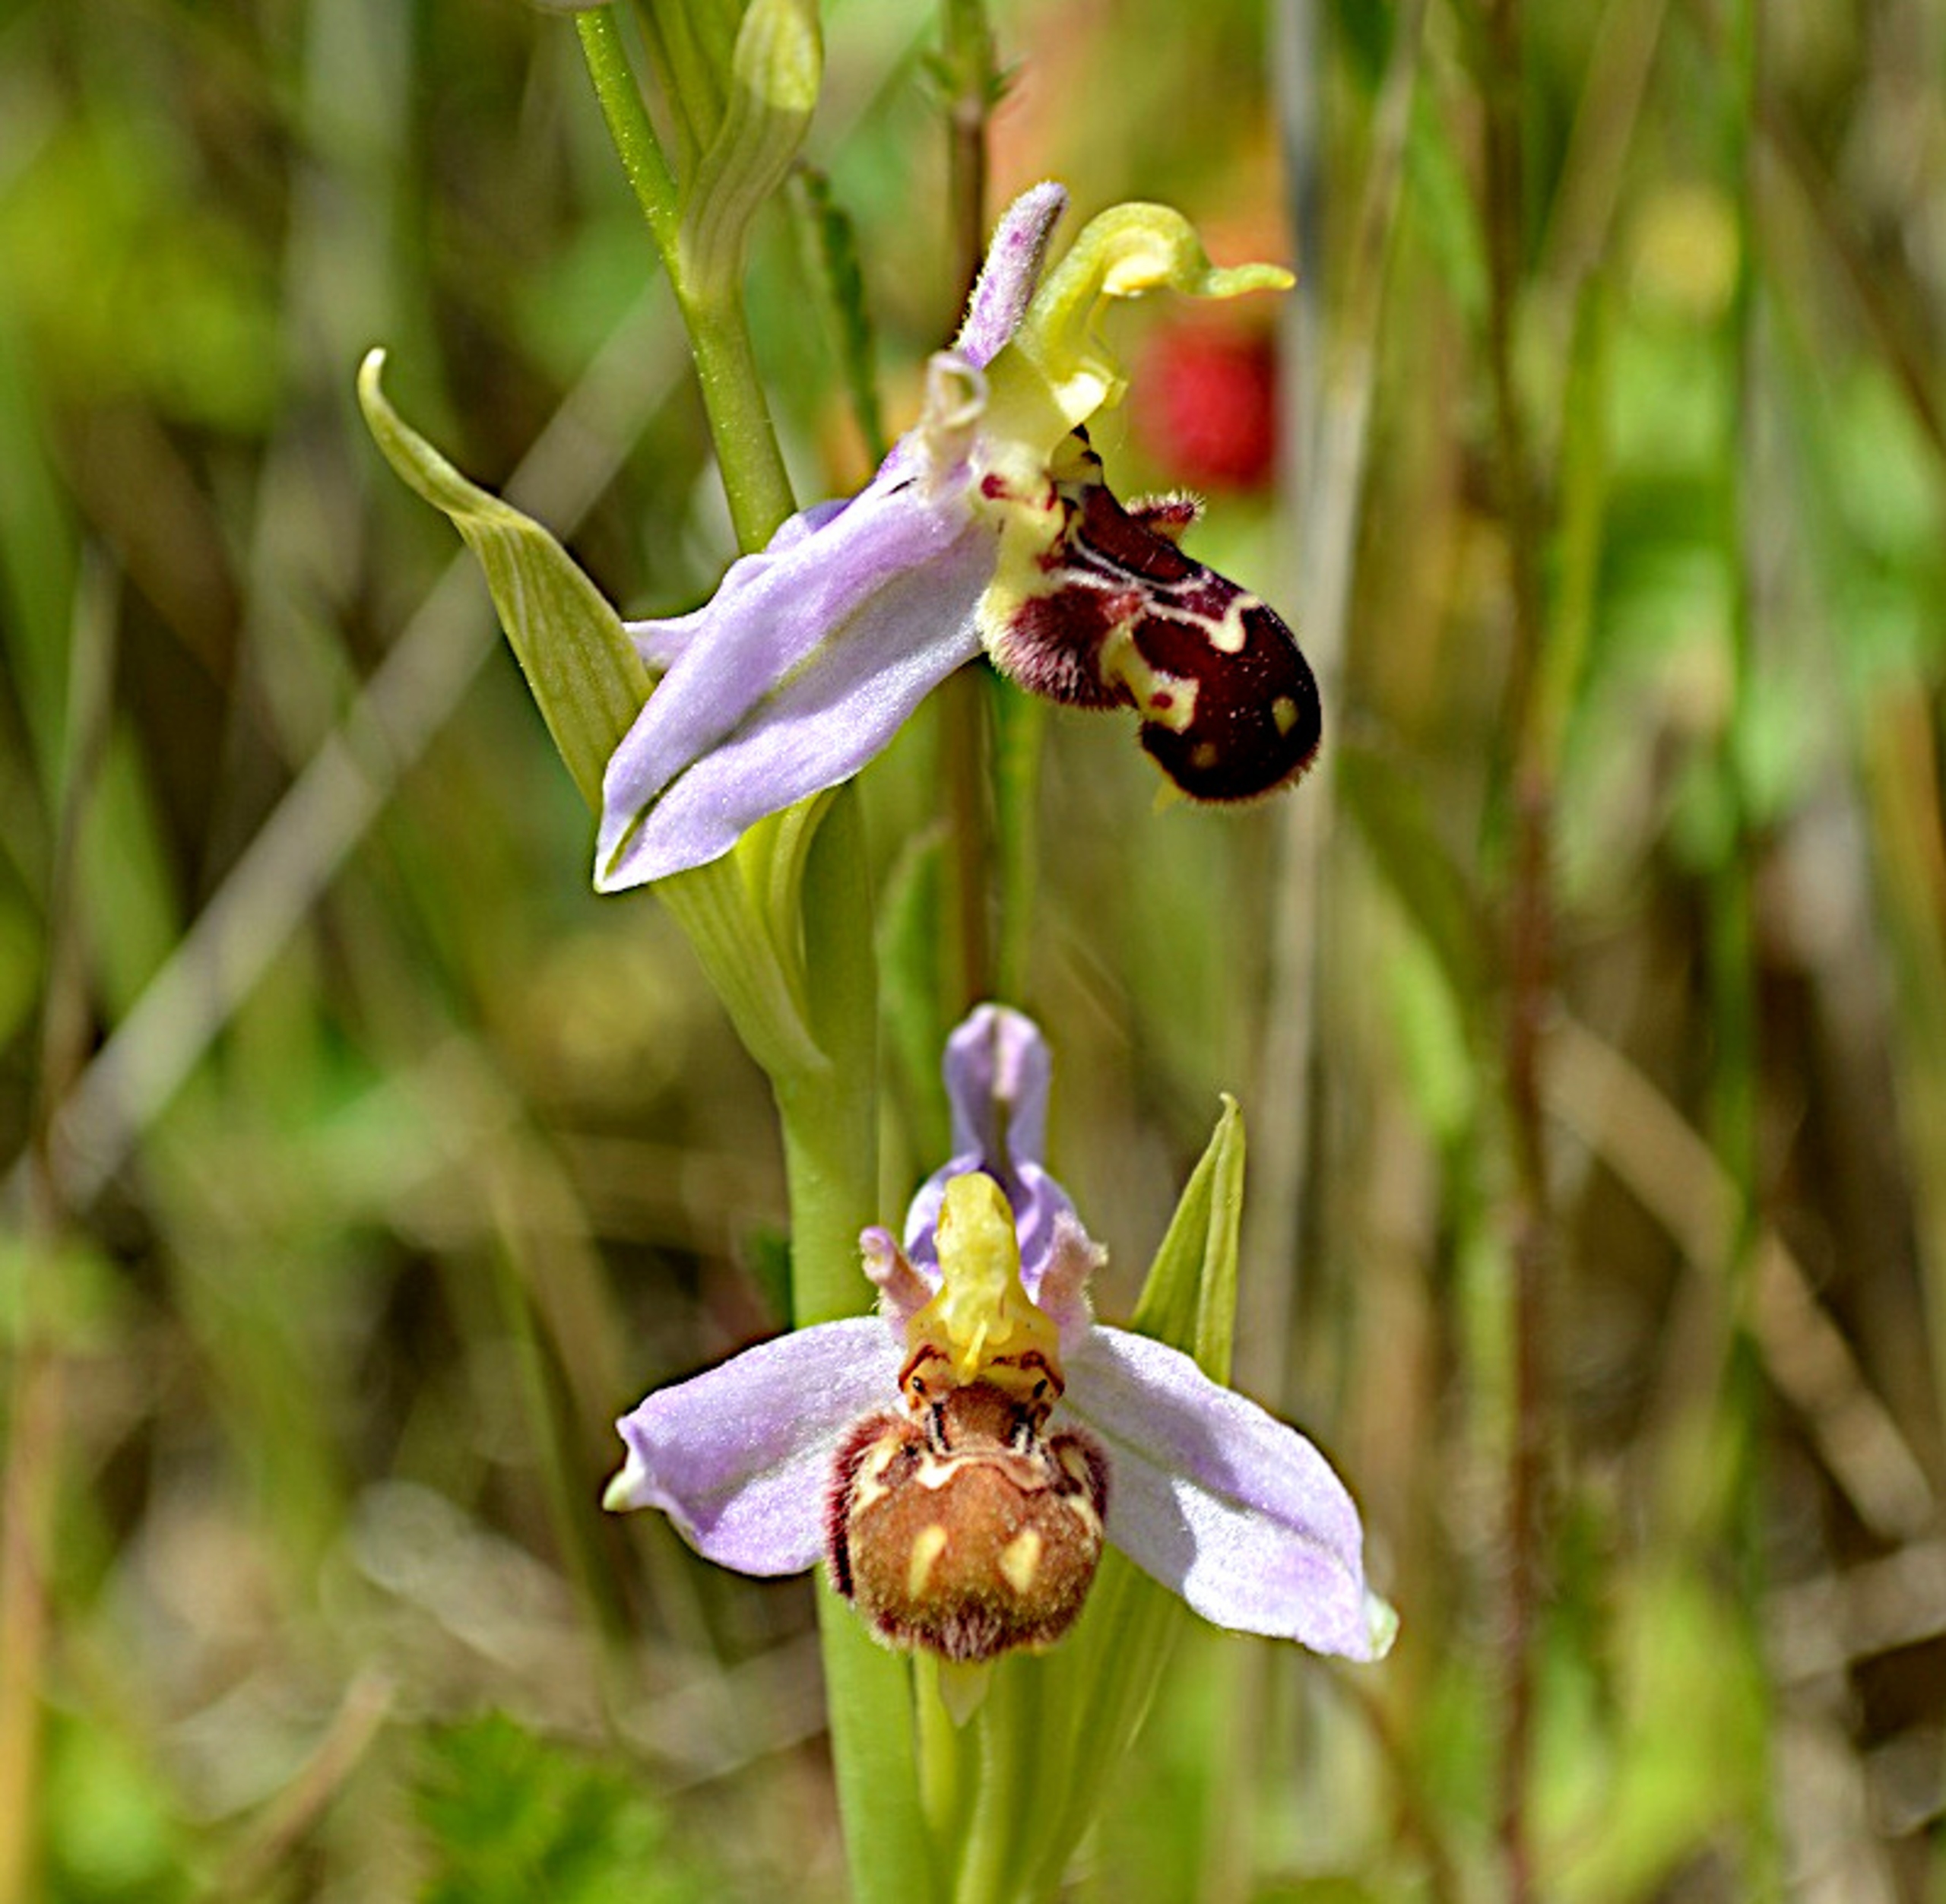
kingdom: Plantae
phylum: Tracheophyta
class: Liliopsida
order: Asparagales
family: Orchidaceae
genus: Ophrys
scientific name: Ophrys apifera
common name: Biblomst
